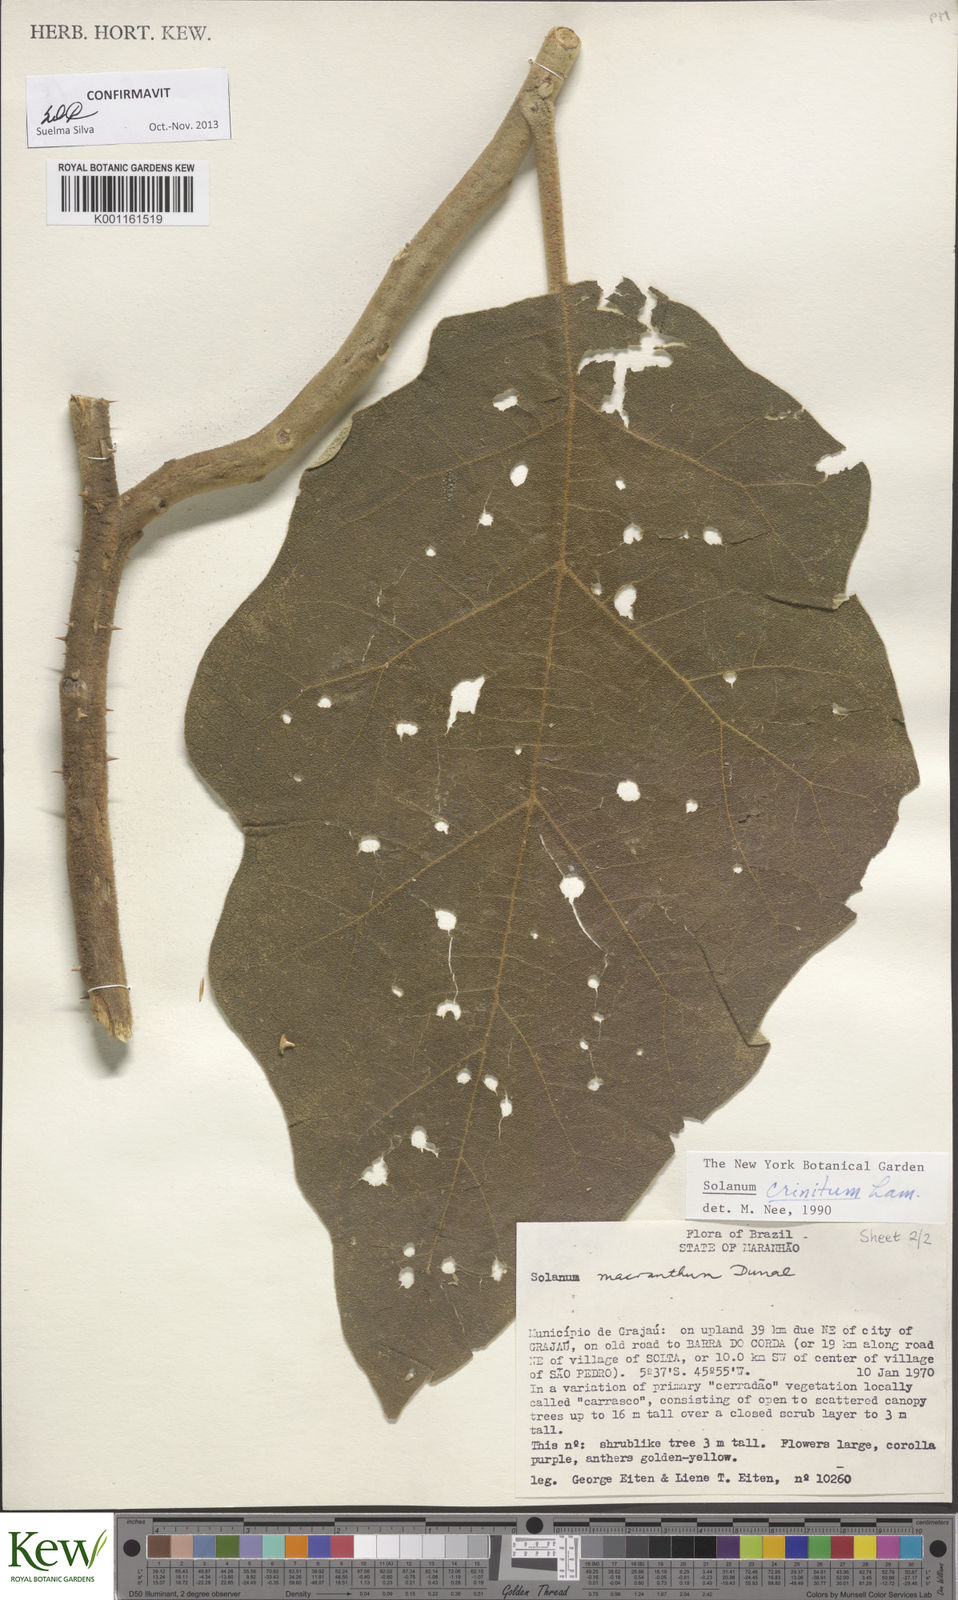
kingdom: Plantae
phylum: Tracheophyta
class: Magnoliopsida
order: Solanales
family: Solanaceae
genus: Solanum
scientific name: Solanum crinitum
